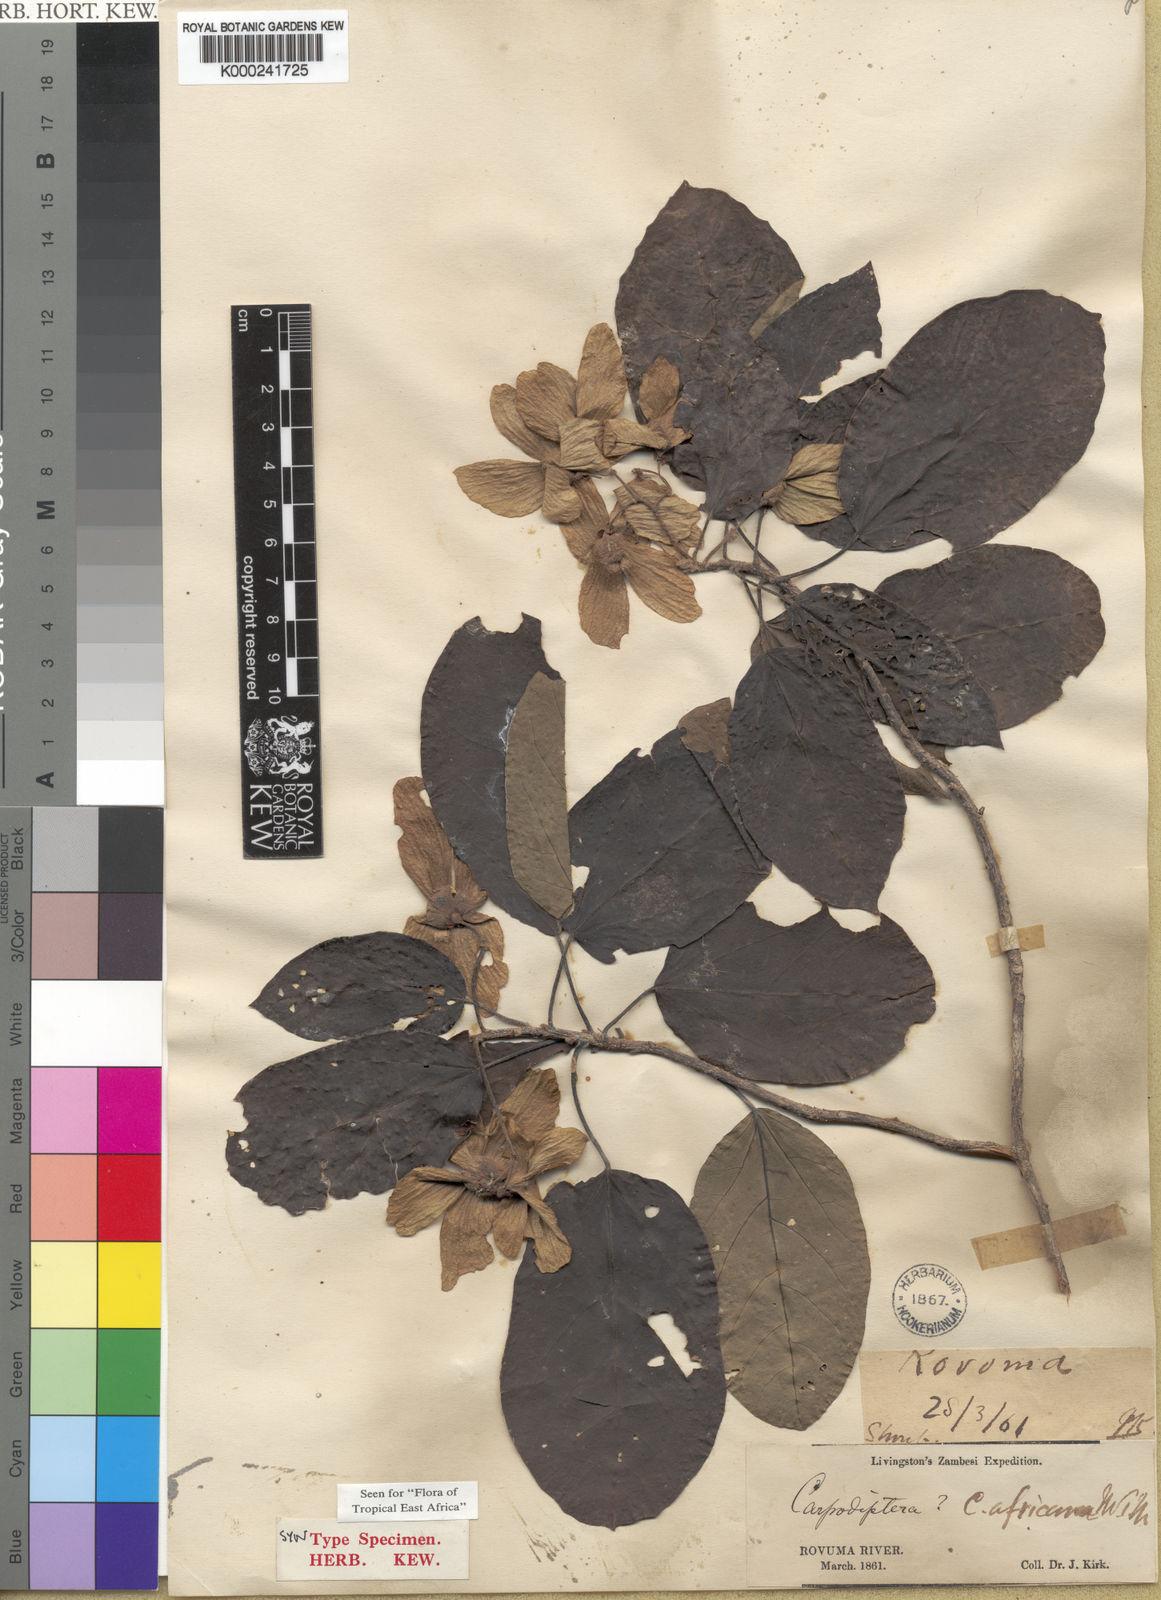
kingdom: Plantae
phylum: Tracheophyta
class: Magnoliopsida
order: Malvales
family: Malvaceae
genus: Carpodiptera
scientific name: Carpodiptera
